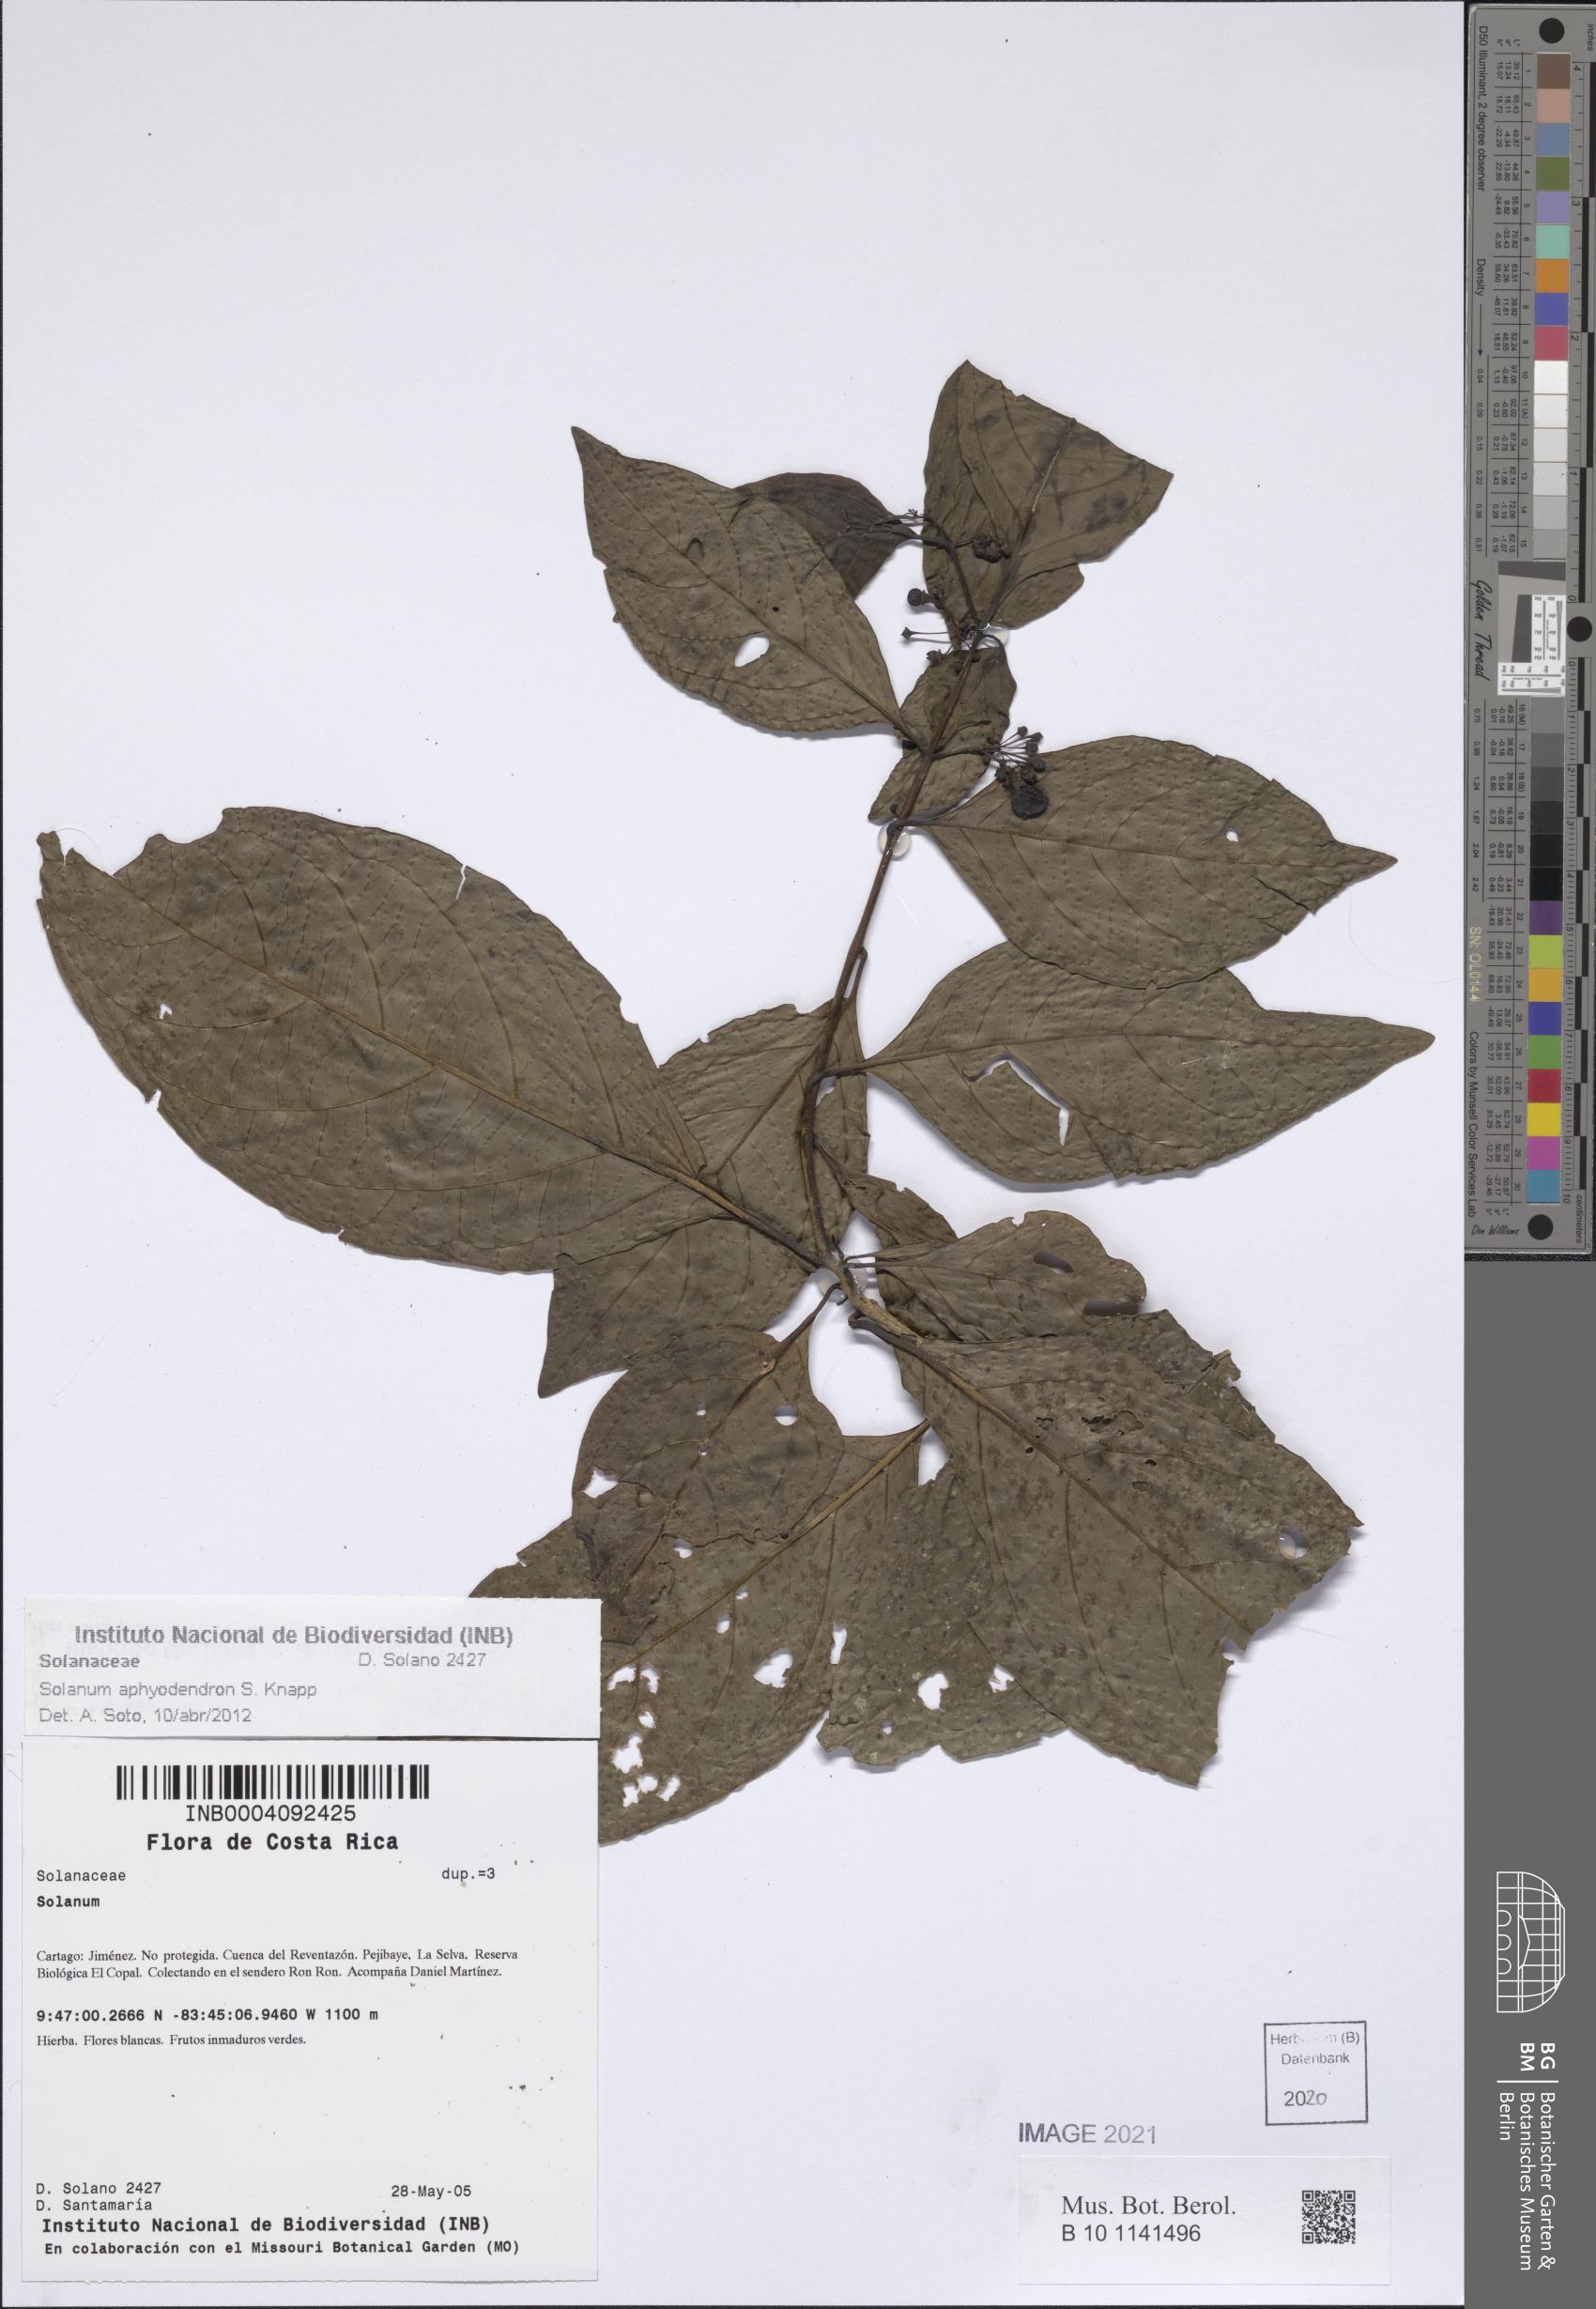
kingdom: Plantae
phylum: Tracheophyta
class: Magnoliopsida
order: Solanales
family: Solanaceae
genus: Solanum
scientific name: Solanum aphyodendron
